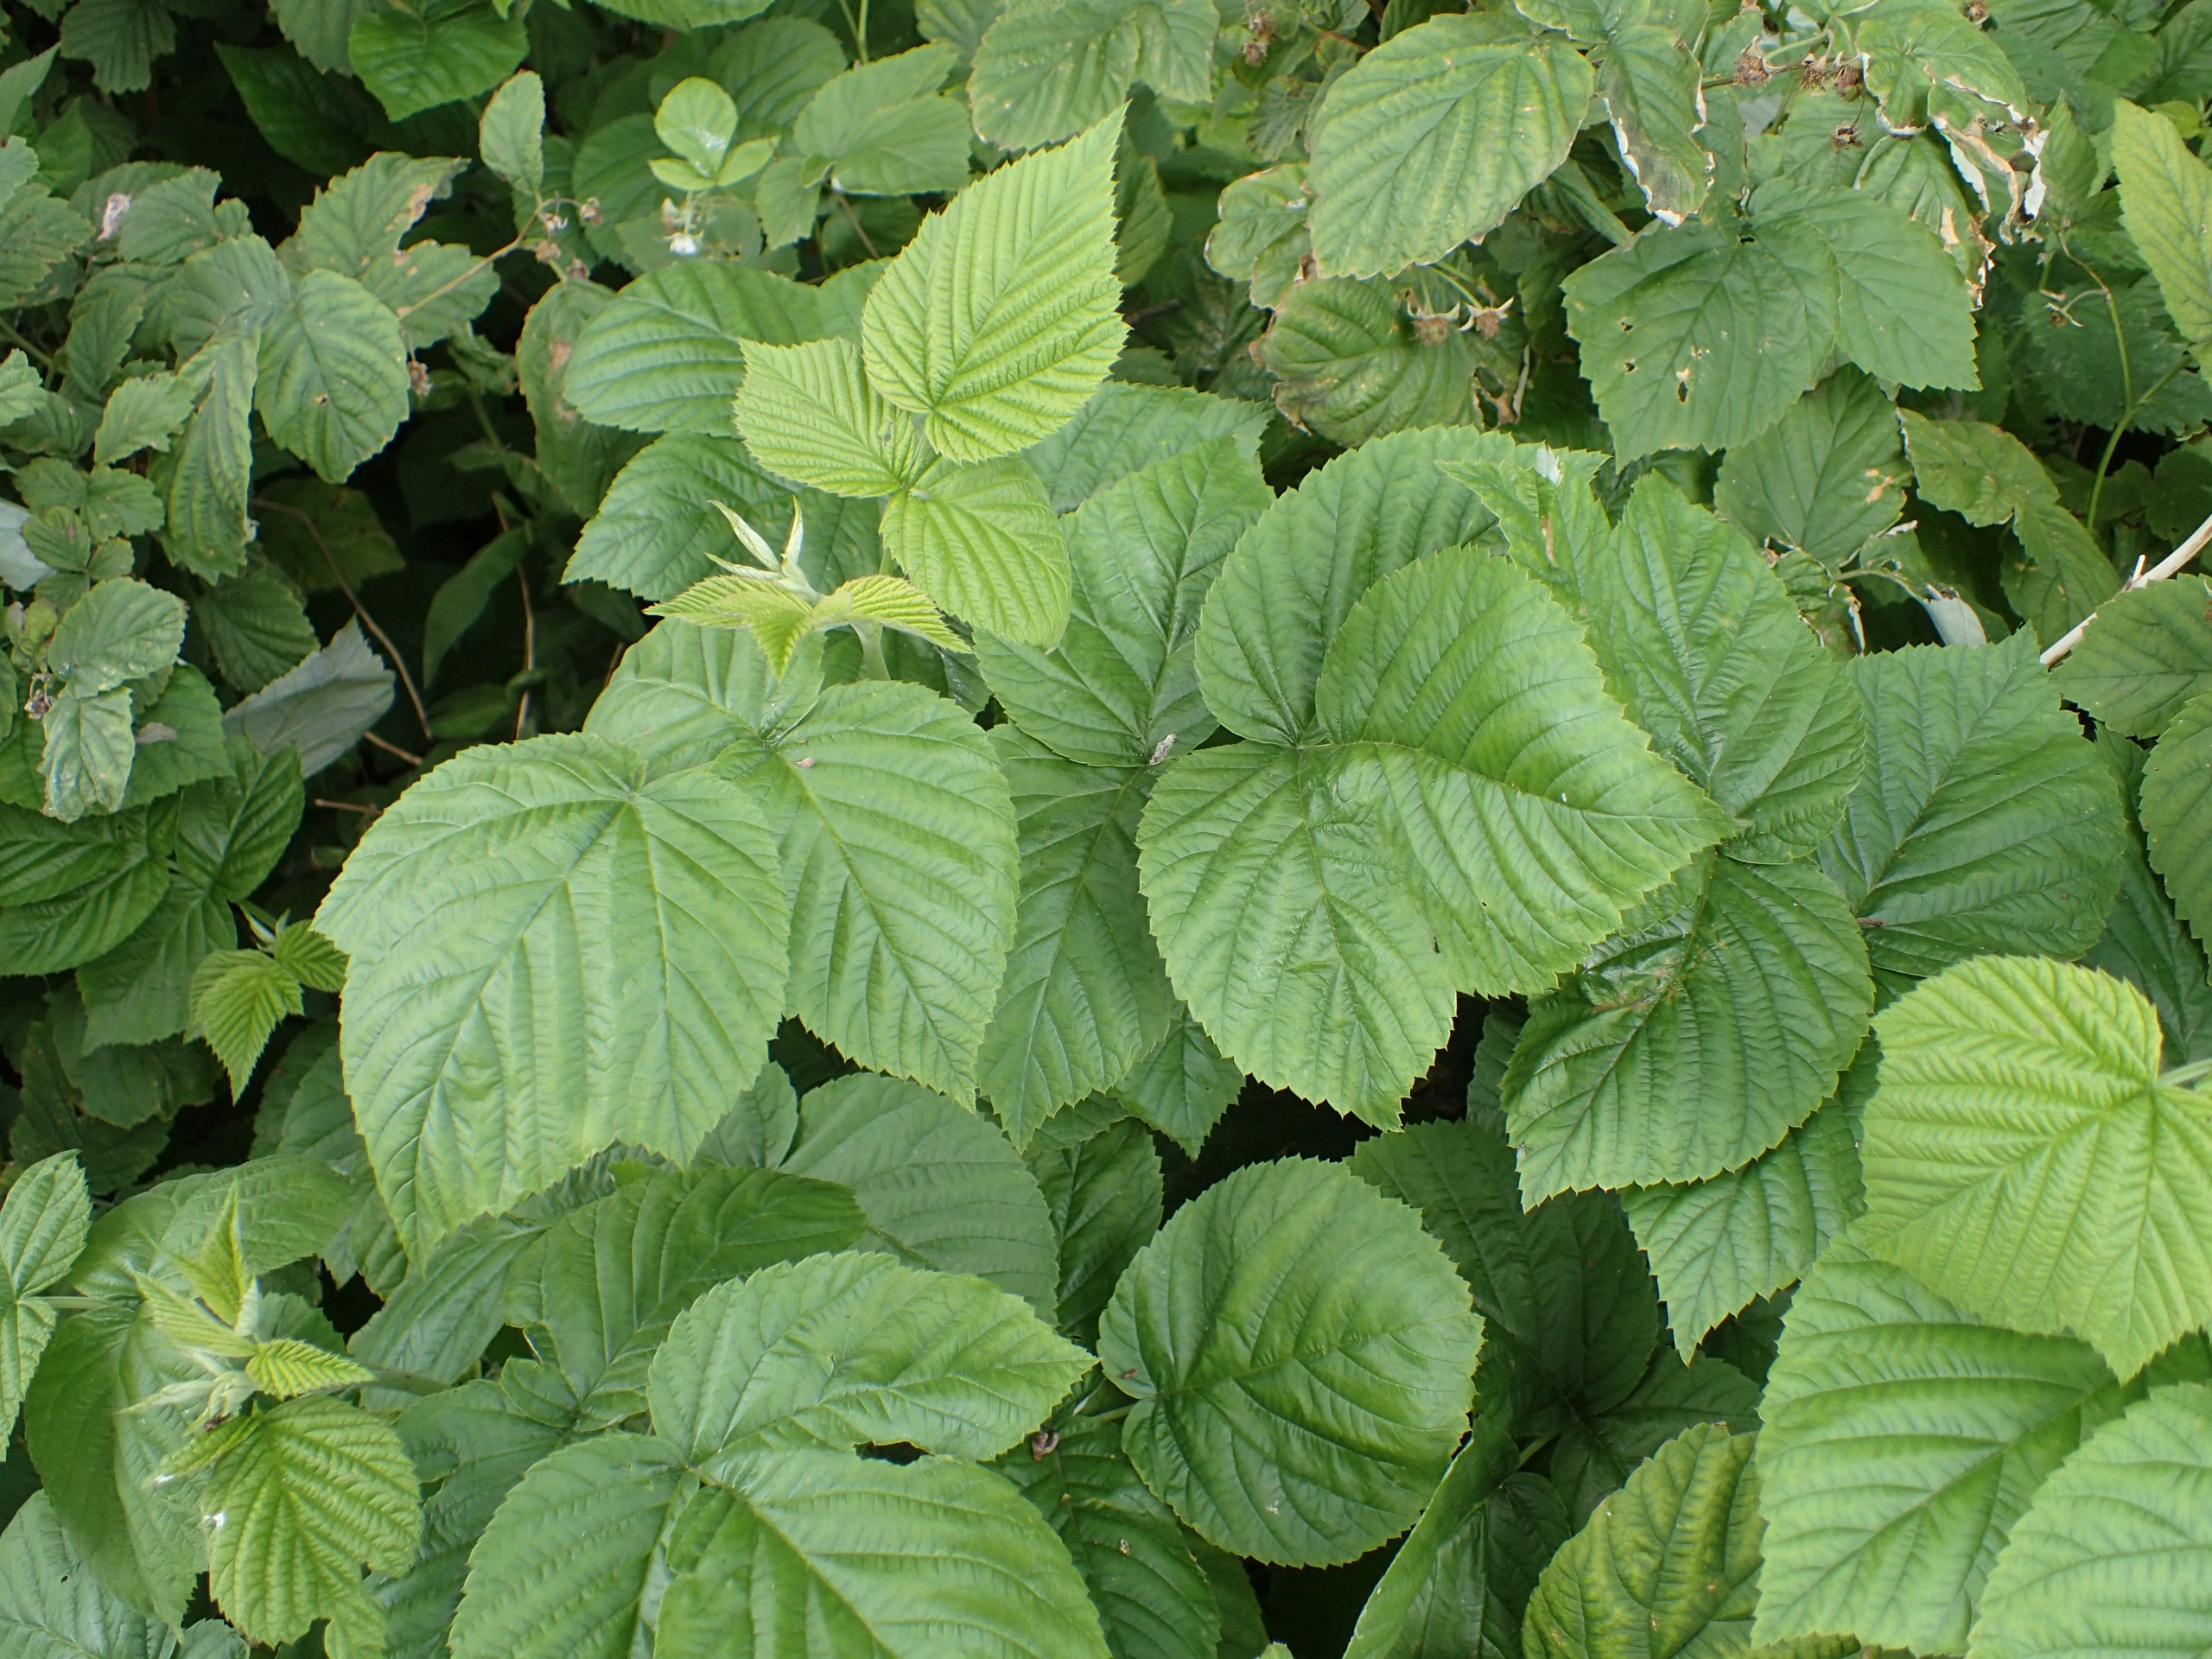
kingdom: Plantae
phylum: Tracheophyta
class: Magnoliopsida
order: Rosales
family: Rosaceae
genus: Rubus
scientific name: Rubus idaeus
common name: Hindbær
